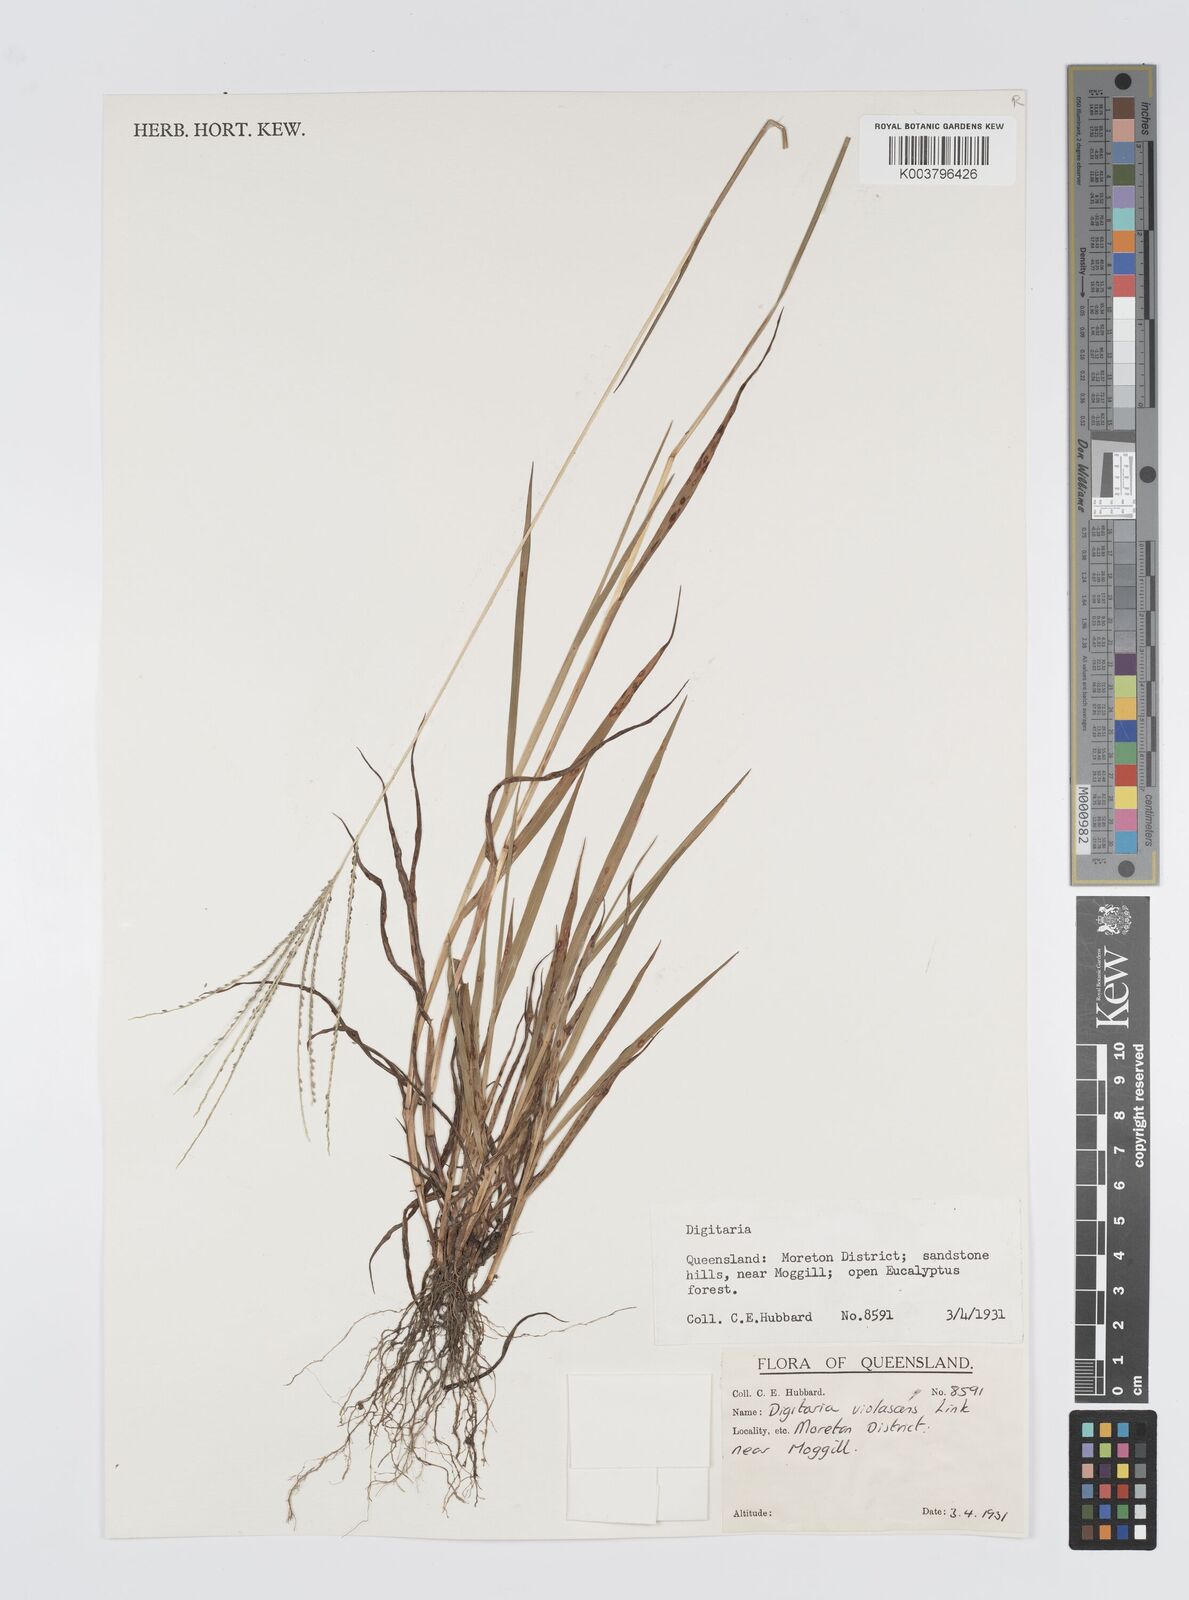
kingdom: Plantae
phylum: Tracheophyta
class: Liliopsida
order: Poales
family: Poaceae
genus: Digitaria
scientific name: Digitaria violascens
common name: Violet crabgrass
